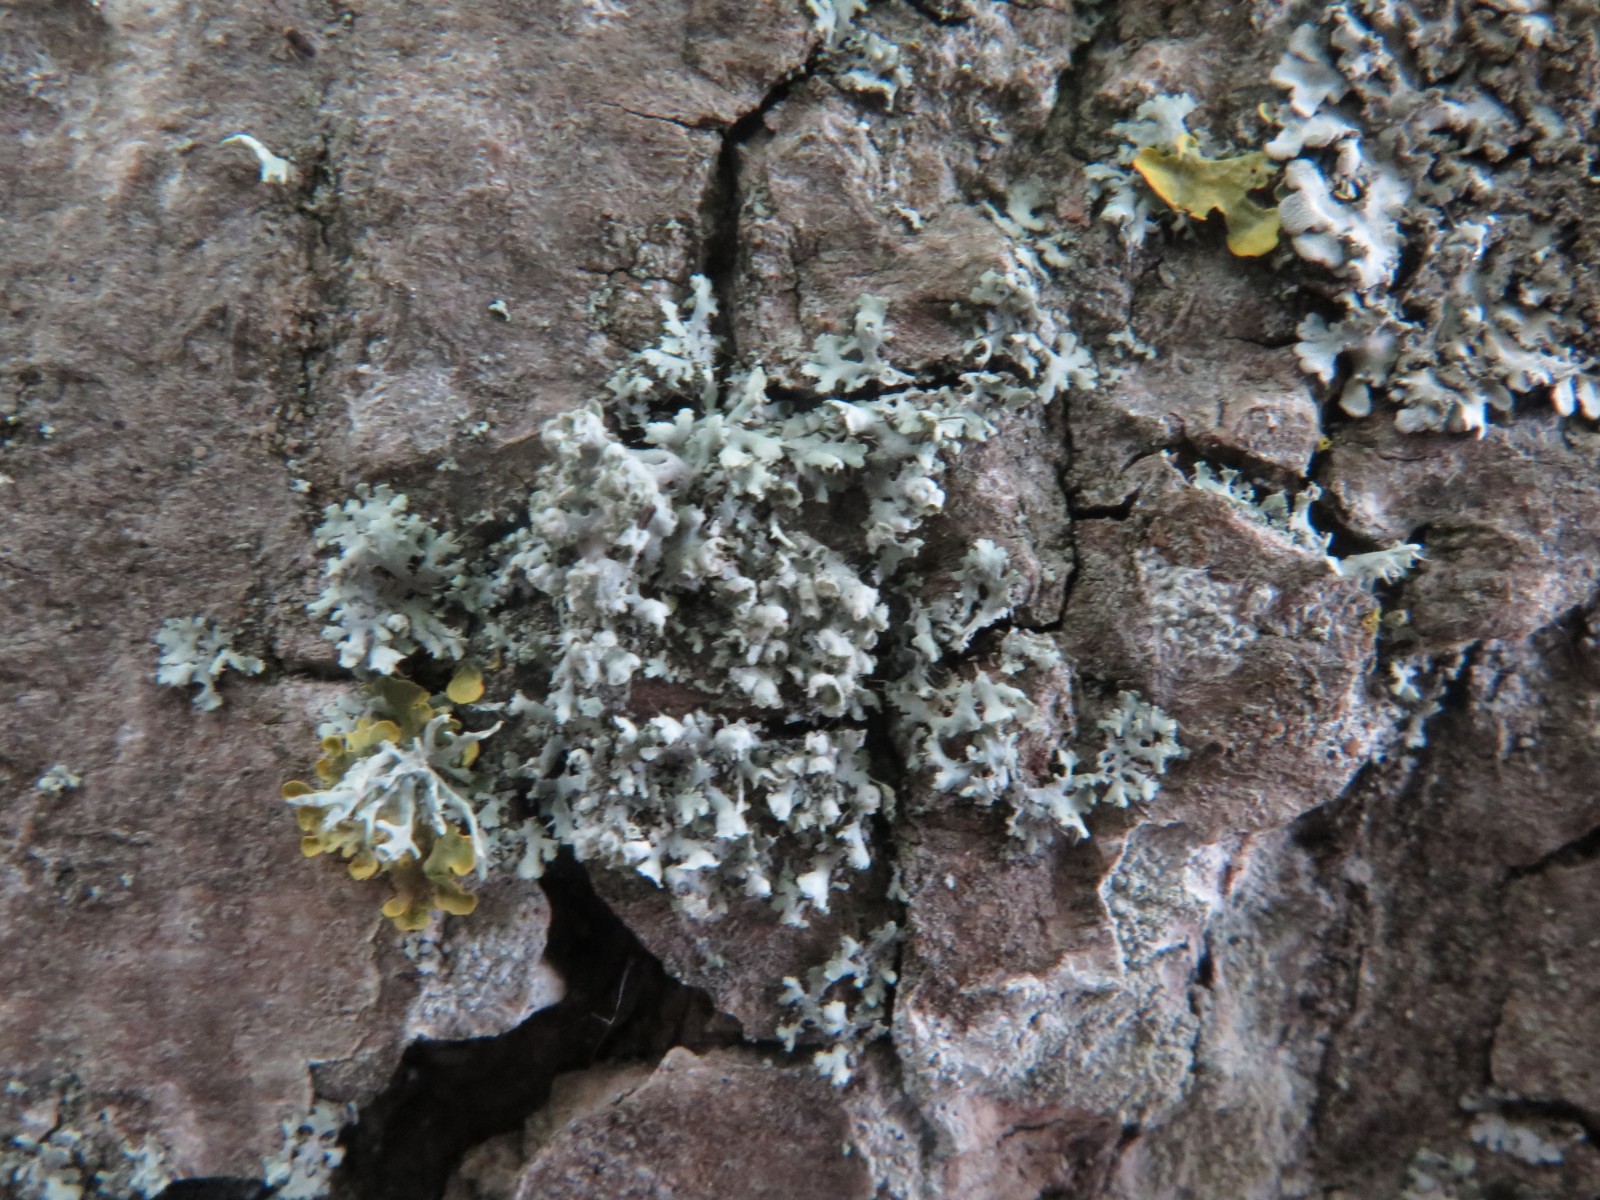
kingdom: Fungi
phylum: Ascomycota
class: Lecanoromycetes
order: Caliciales
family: Physciaceae
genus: Physcia
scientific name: Physcia adscendens
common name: hætte-rosetlav
